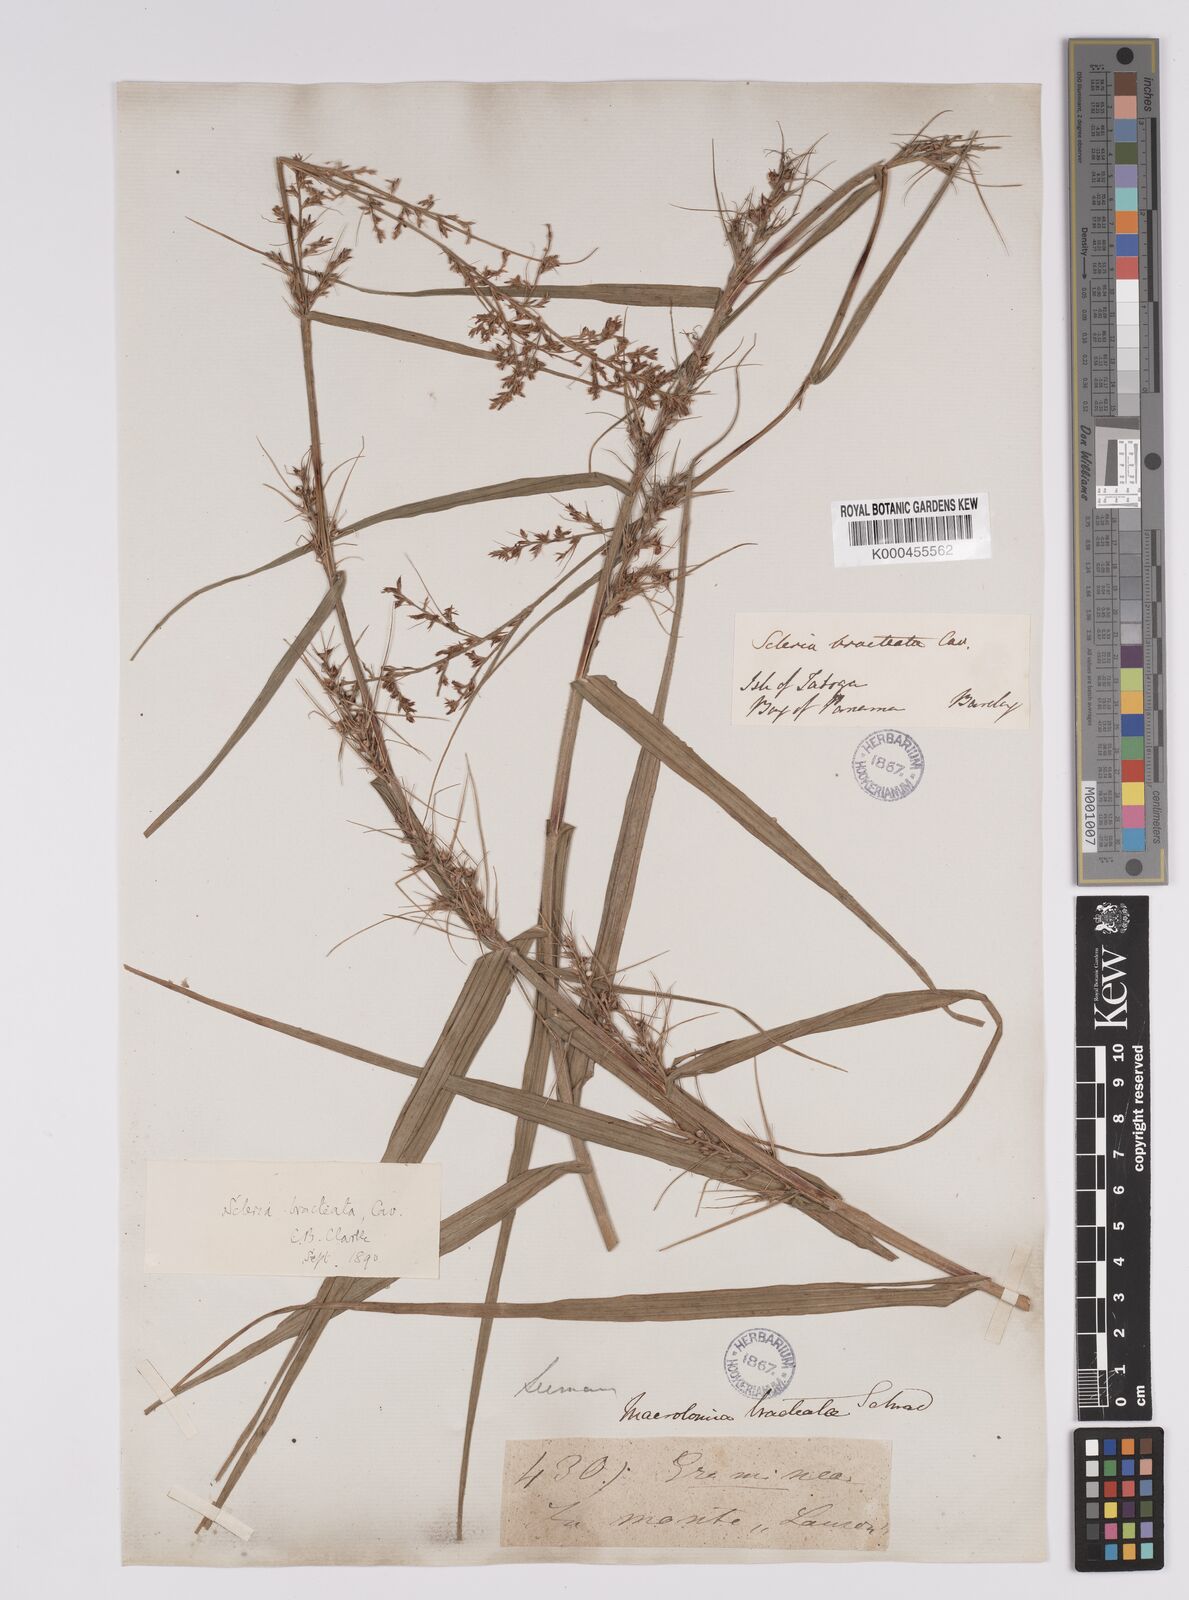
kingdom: Plantae
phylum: Tracheophyta
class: Liliopsida
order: Poales
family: Cyperaceae
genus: Scleria
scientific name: Scleria bracteata
